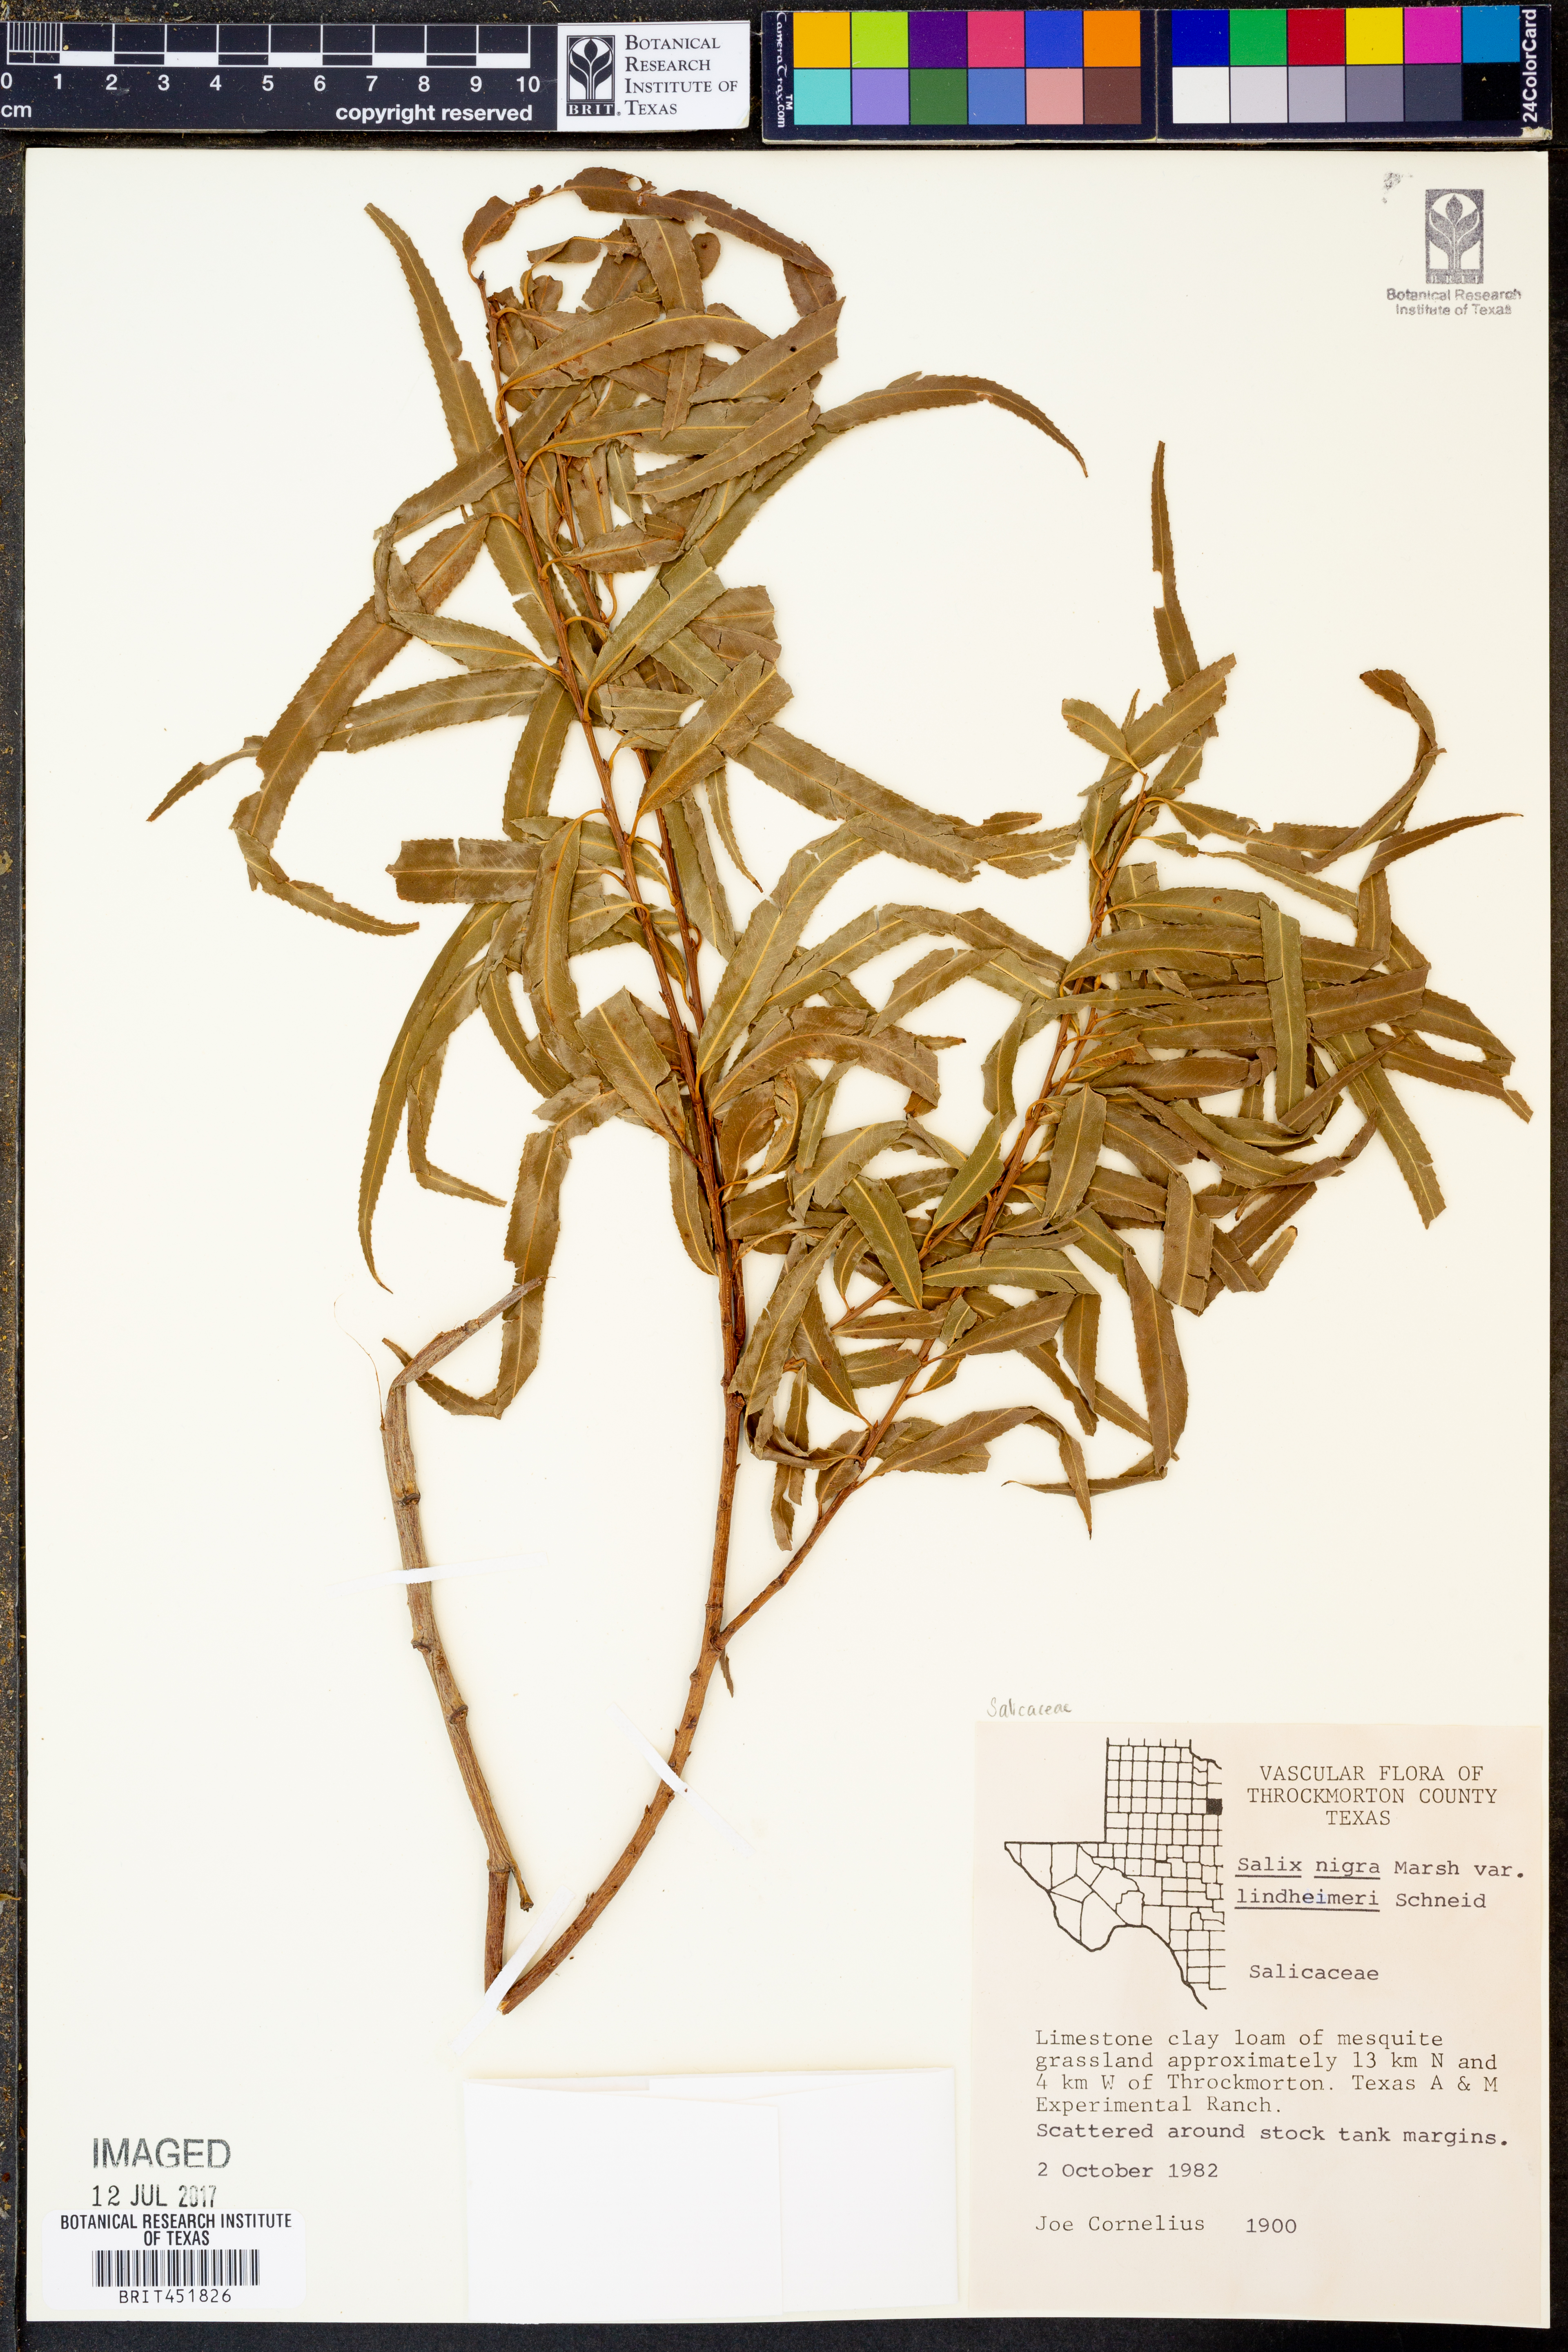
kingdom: Plantae
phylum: Tracheophyta
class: Magnoliopsida
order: Malpighiales
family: Salicaceae
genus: Salix
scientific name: Salix nigra
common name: Black willow
